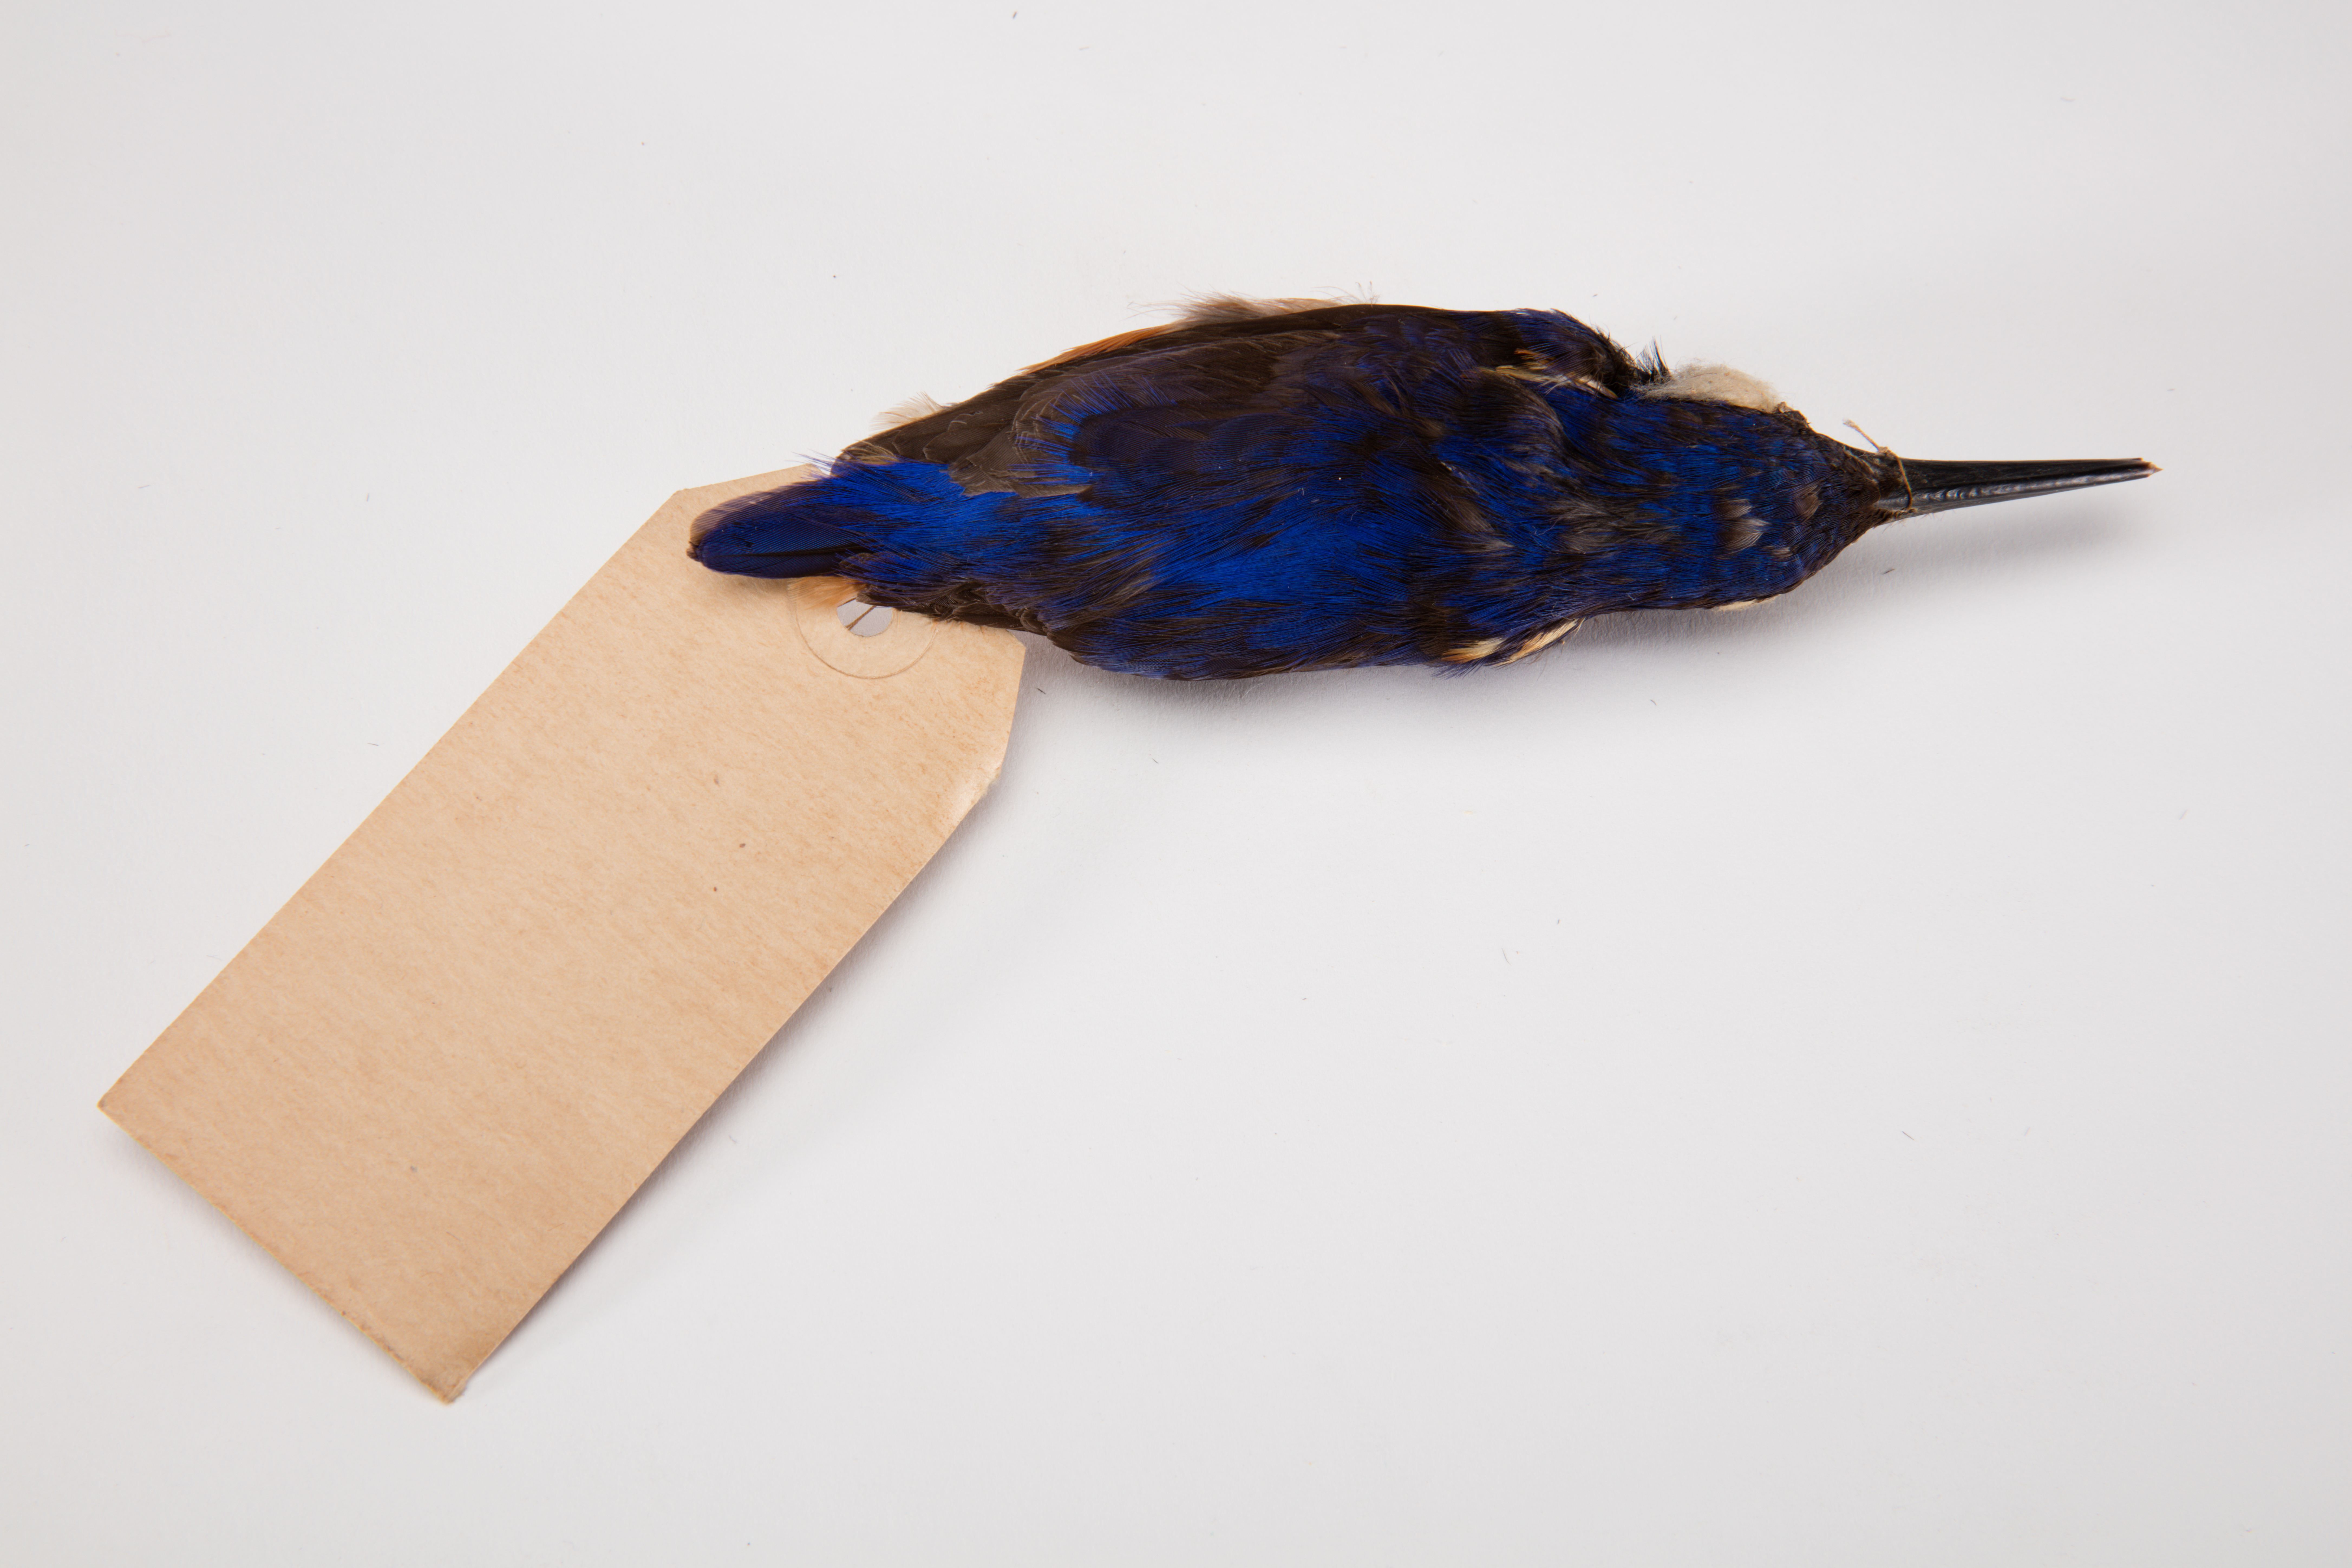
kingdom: Animalia
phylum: Chordata
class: Aves
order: Coraciiformes
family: Alcedinidae
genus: Ceyx
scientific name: Ceyx azureus
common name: Azure kingfisher
